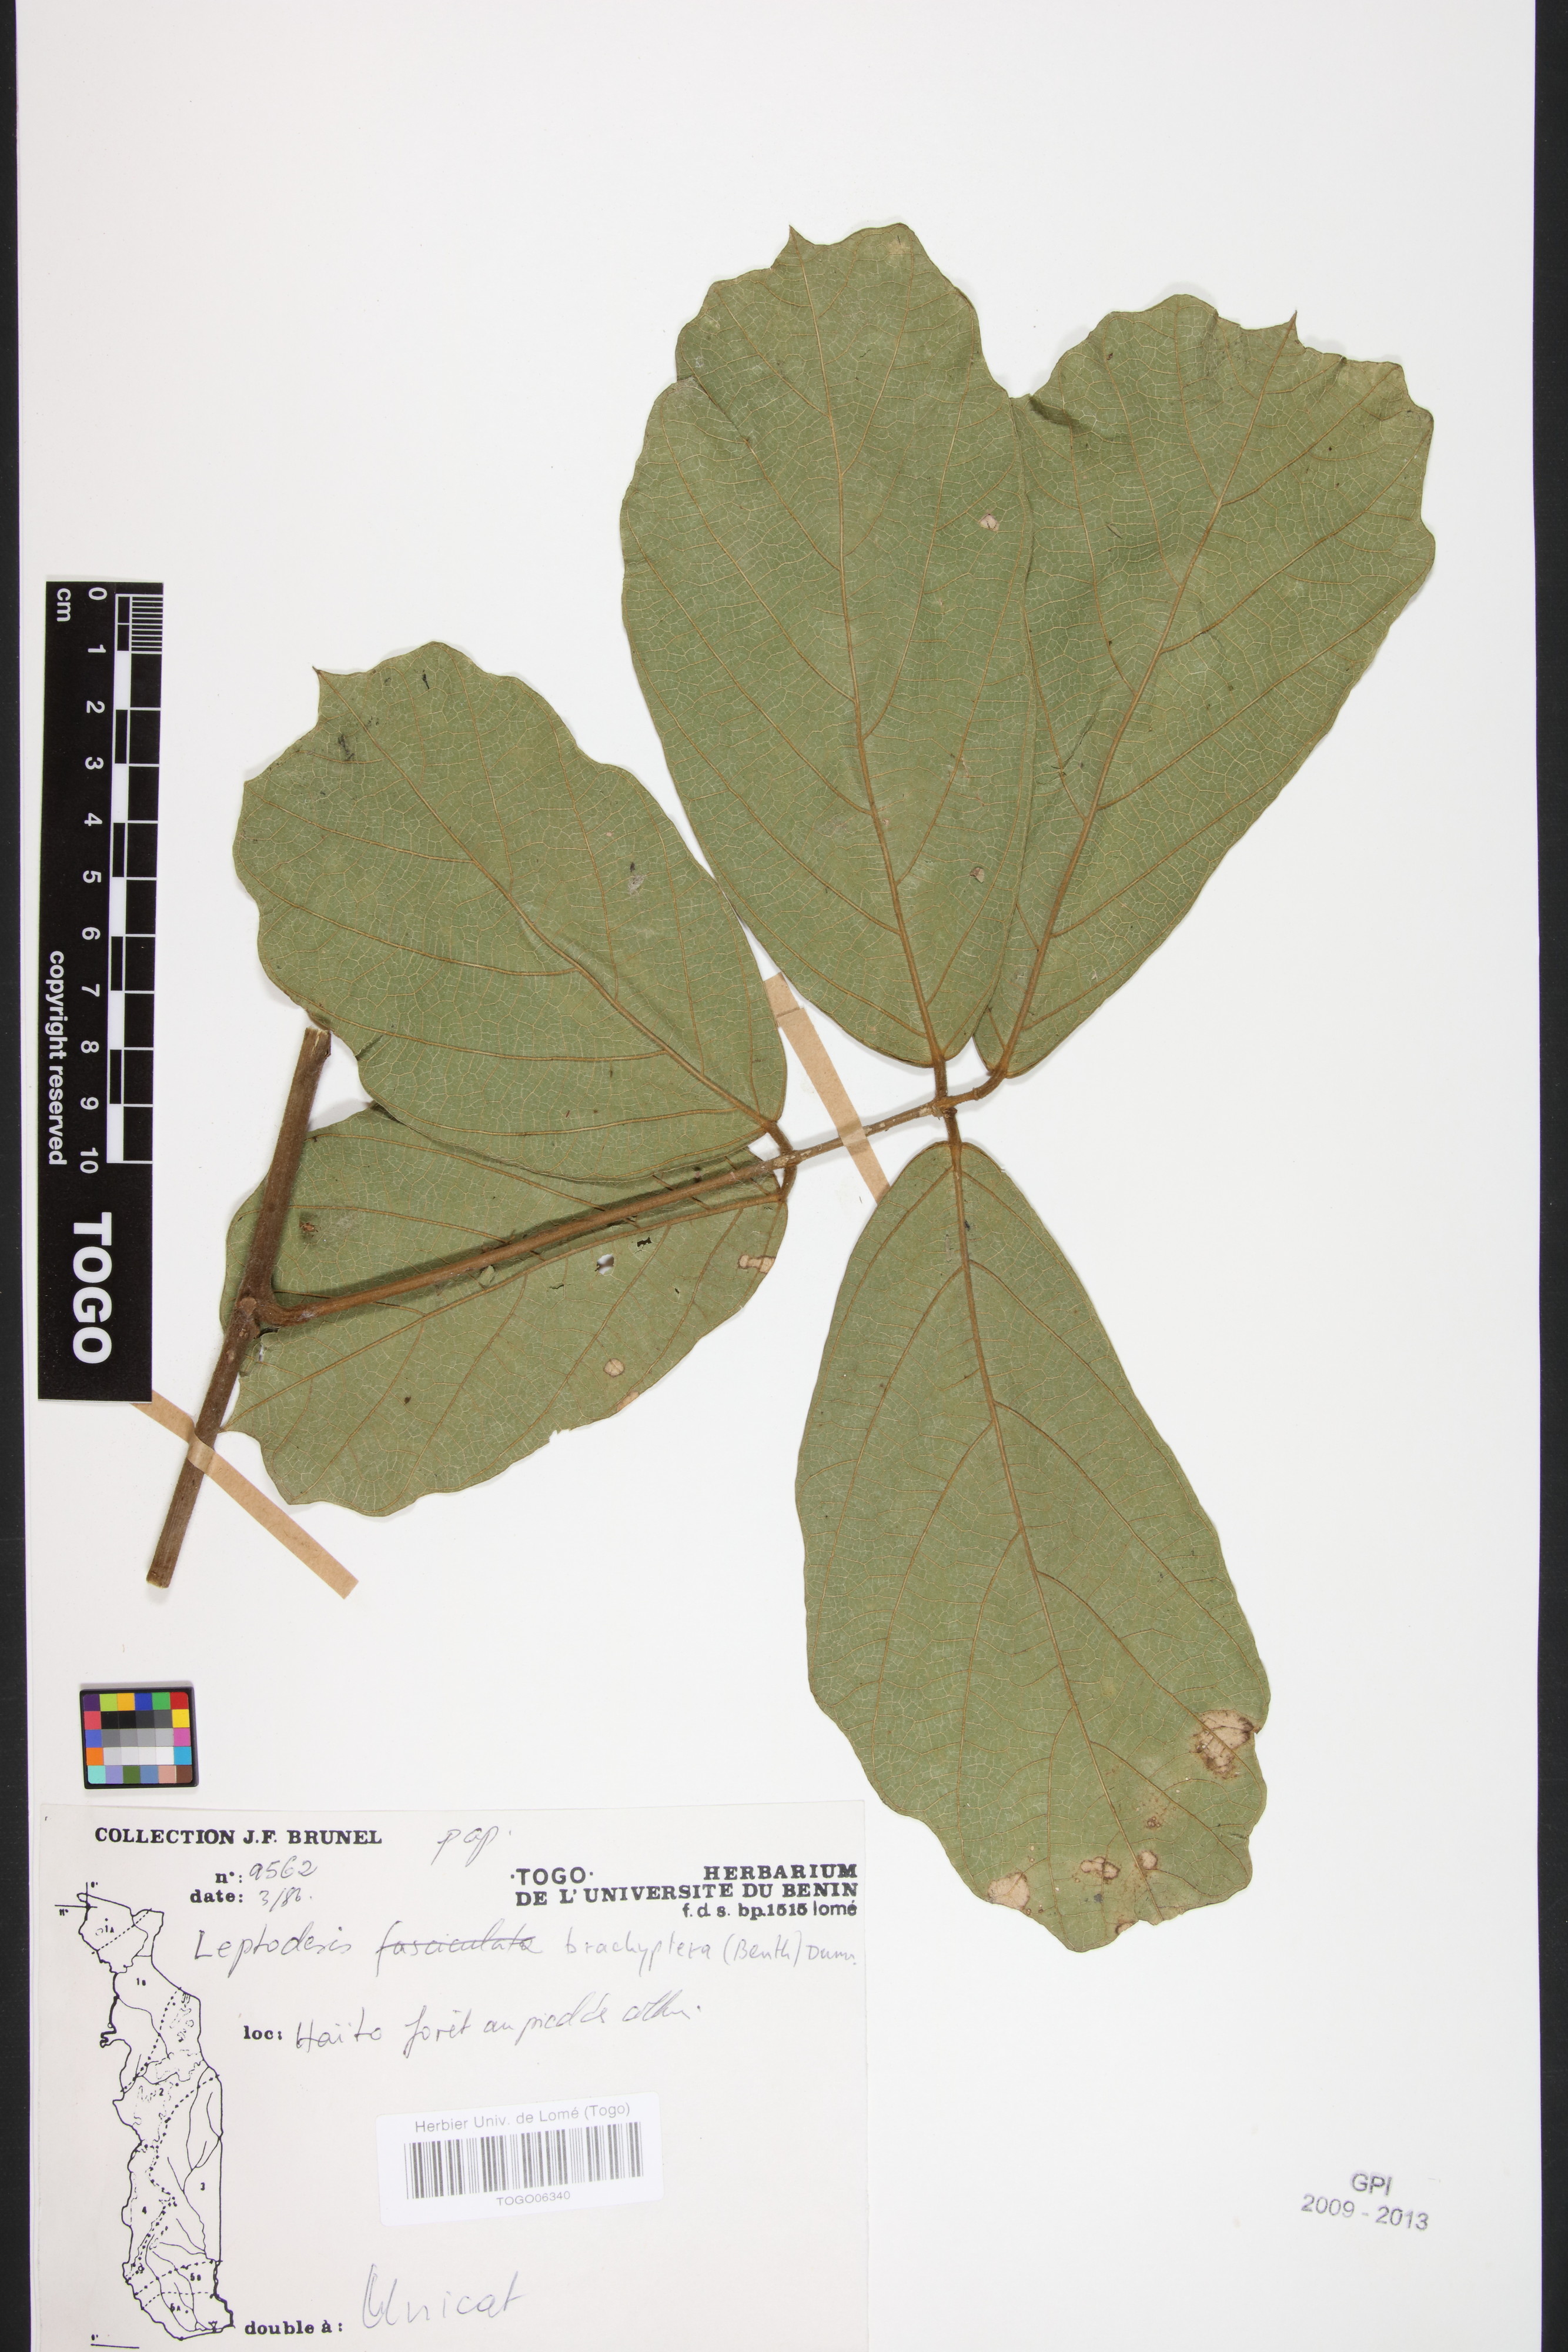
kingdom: Plantae
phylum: Tracheophyta
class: Magnoliopsida
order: Fabales
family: Fabaceae
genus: Leptoderris
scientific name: Leptoderris brachyptera
